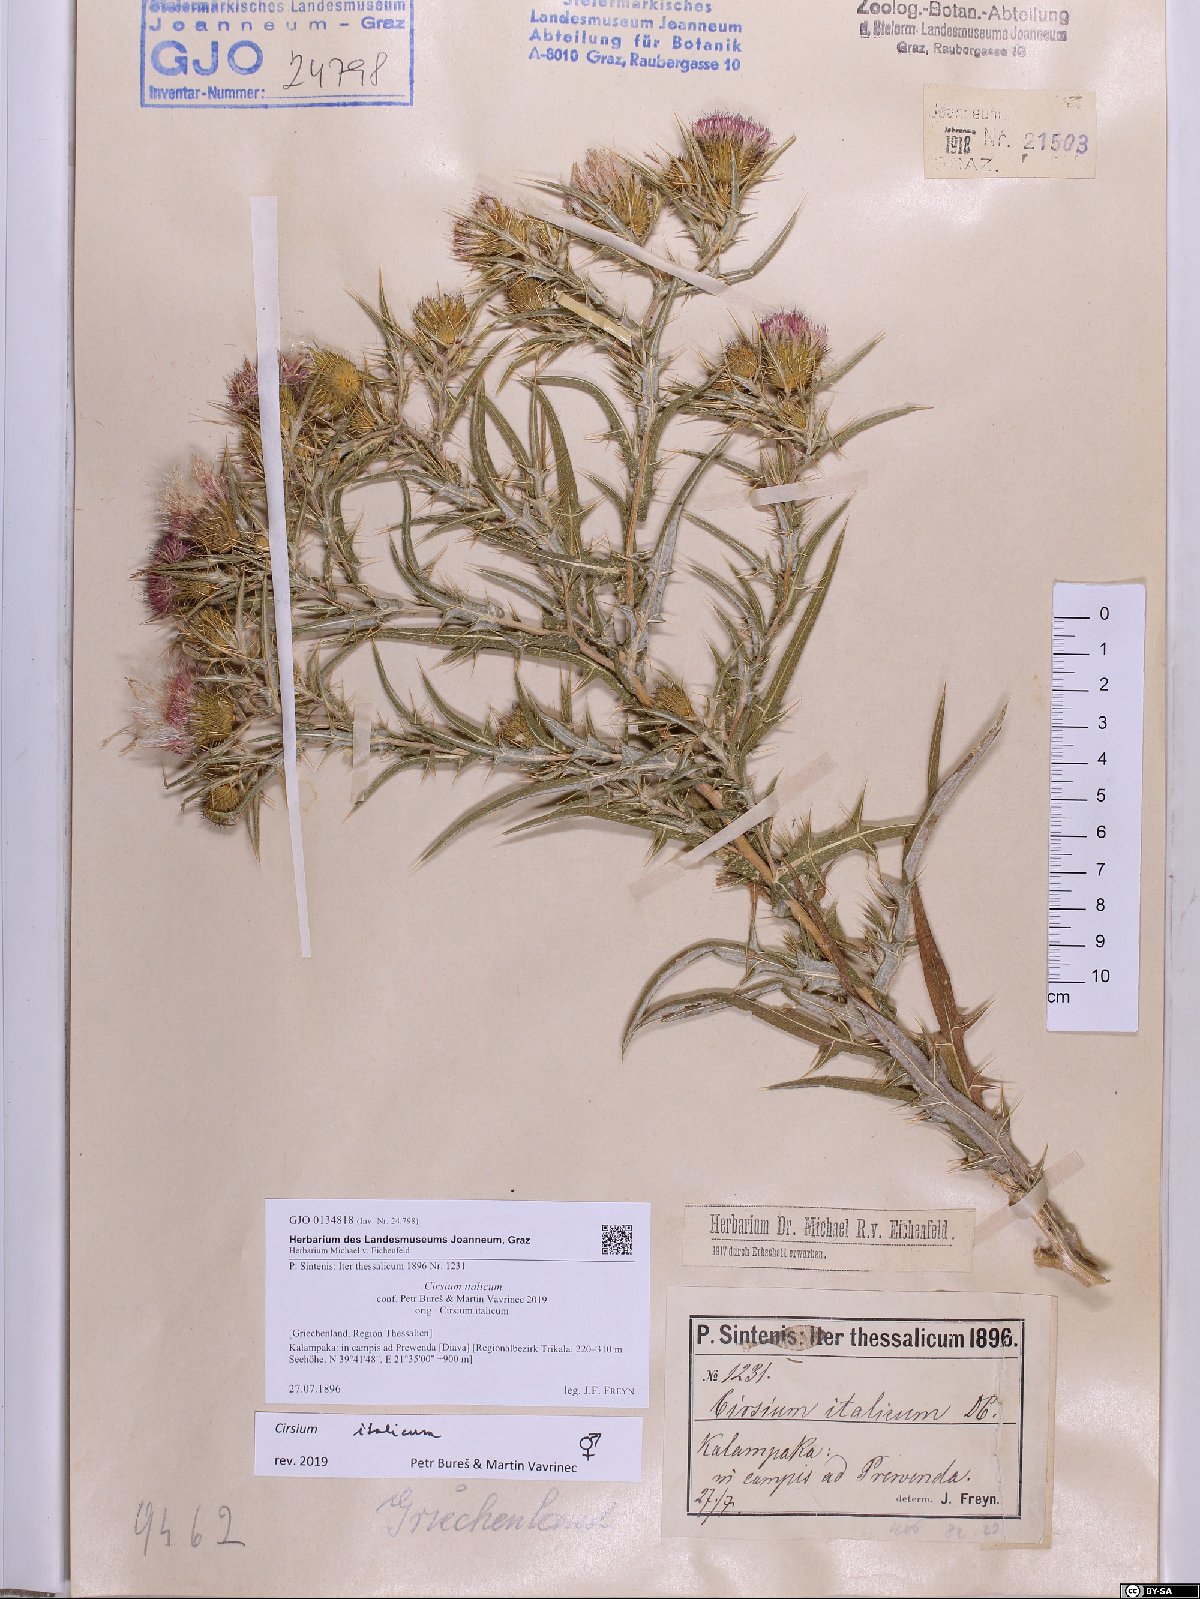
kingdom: Plantae
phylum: Tracheophyta
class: Magnoliopsida
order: Asterales
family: Asteraceae
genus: Epitrachys
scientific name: Epitrachys italica
